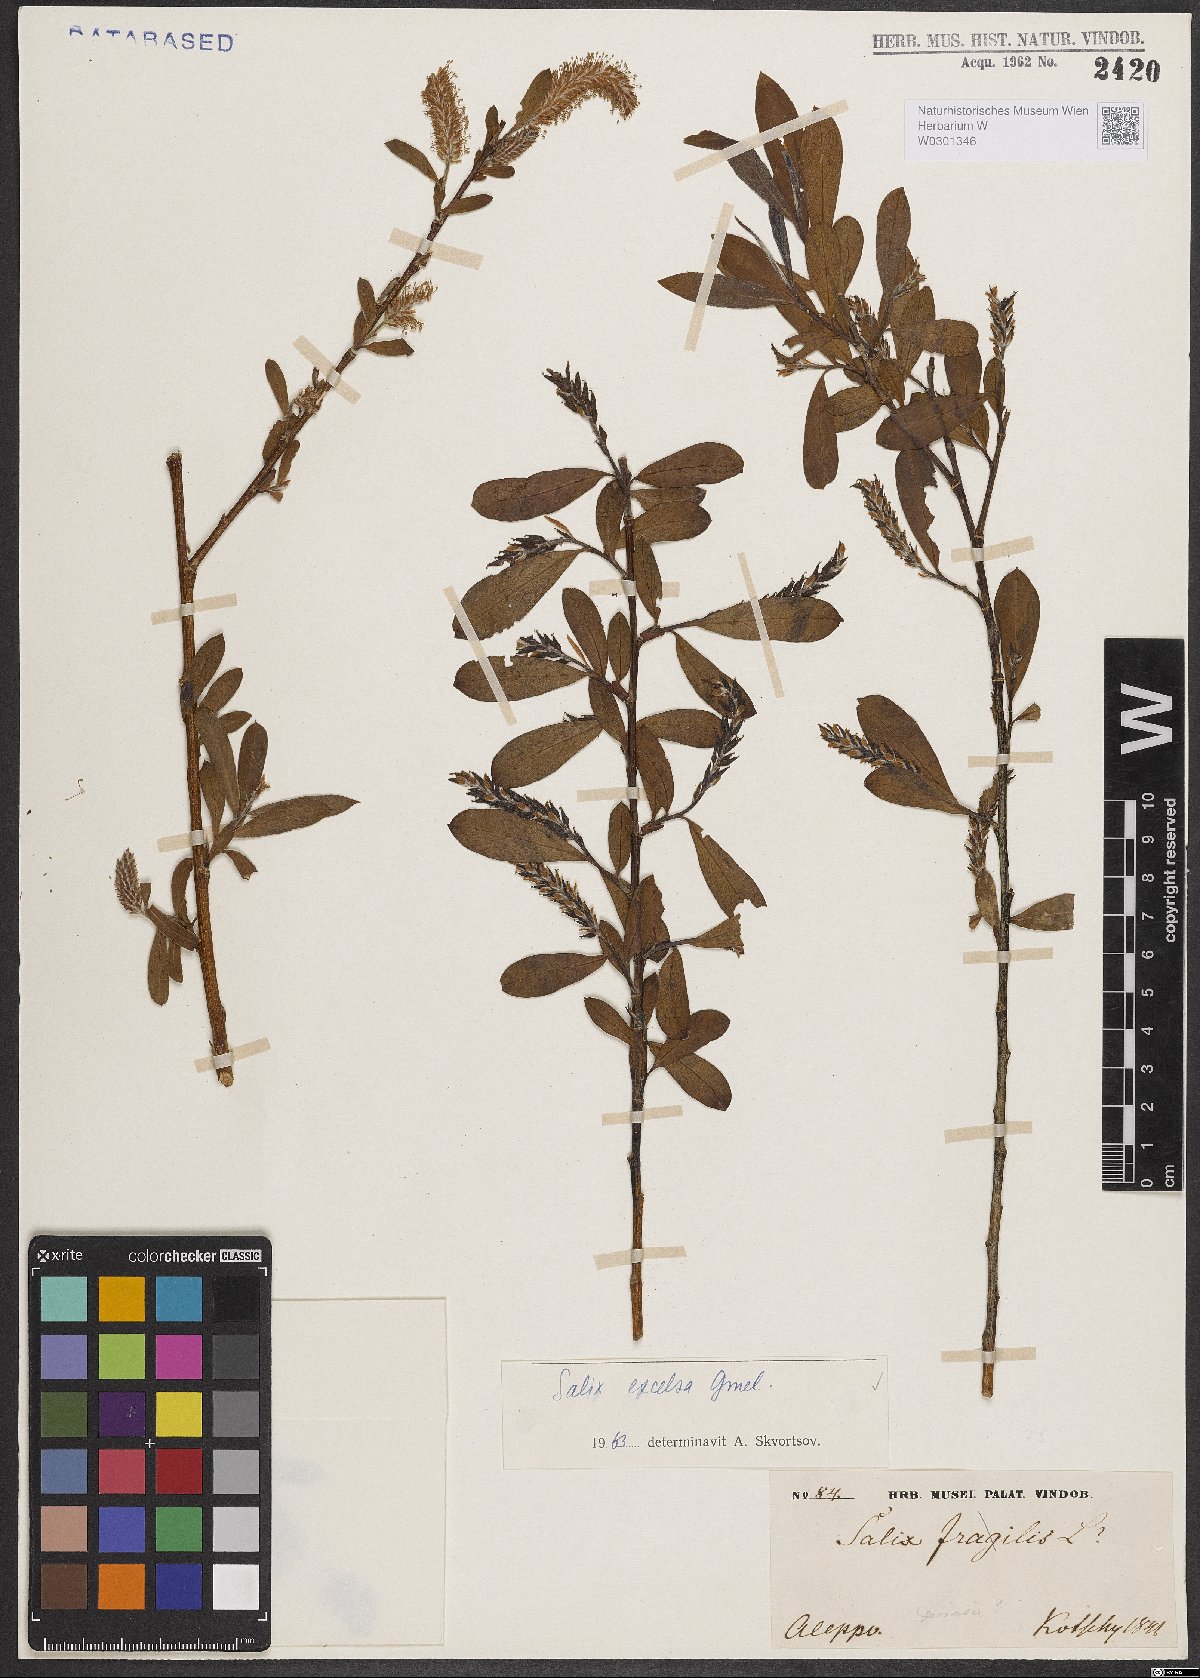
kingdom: Plantae
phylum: Tracheophyta
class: Magnoliopsida
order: Malpighiales
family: Salicaceae
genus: Salix
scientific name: Salix excelsa
